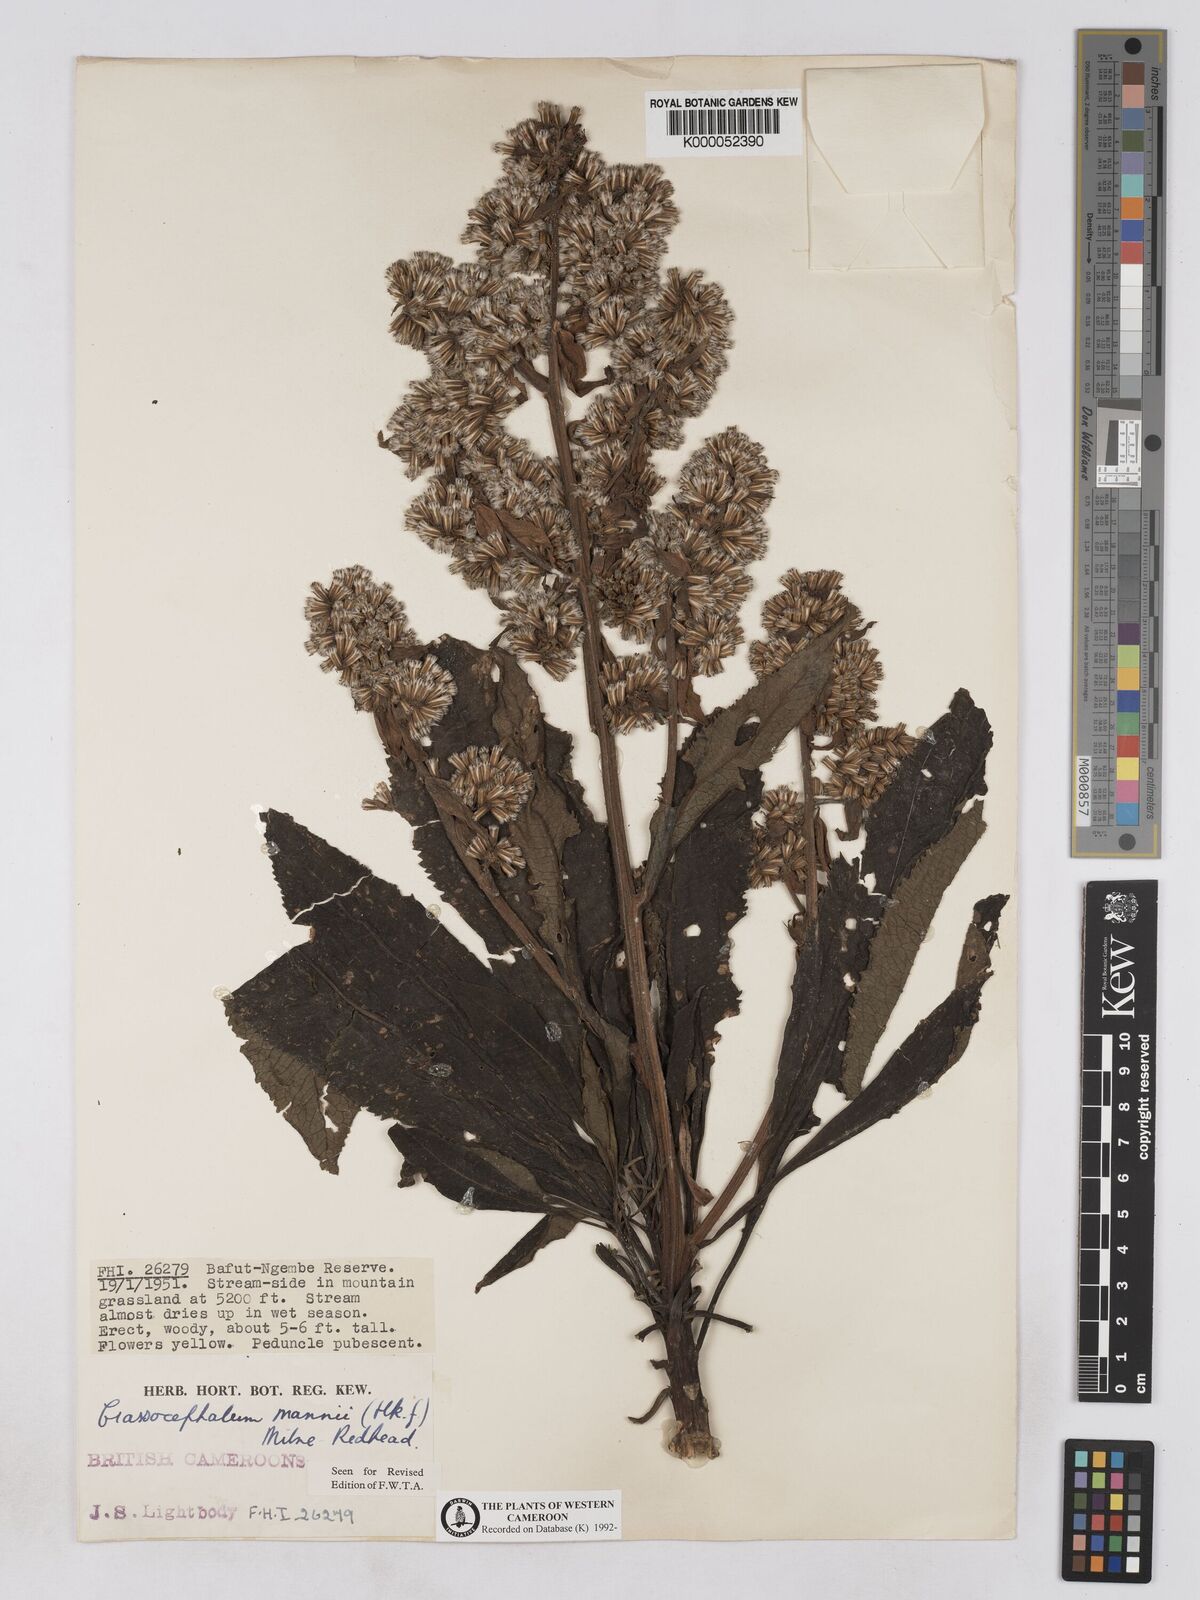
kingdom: Plantae
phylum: Tracheophyta
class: Magnoliopsida
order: Asterales
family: Asteraceae
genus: Solanecio
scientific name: Solanecio mannii
